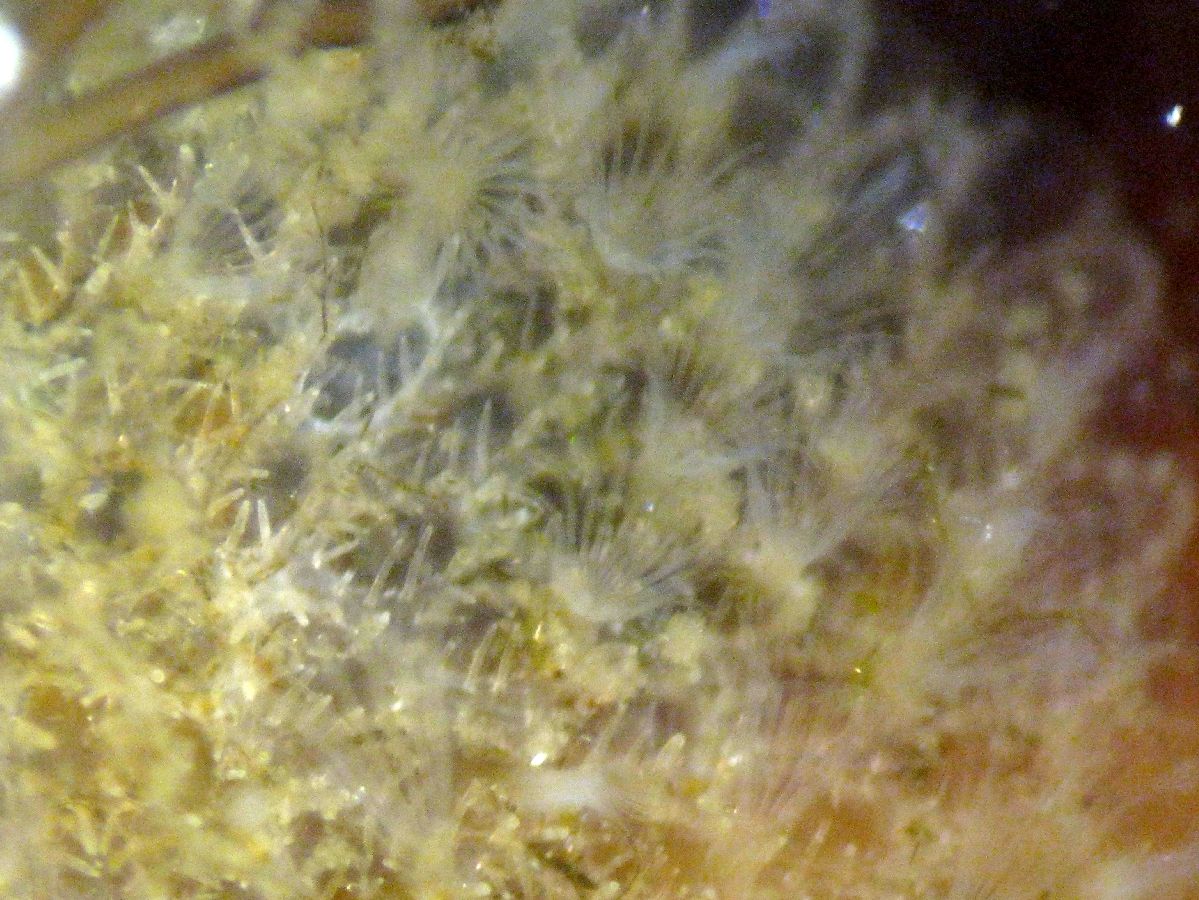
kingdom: Animalia
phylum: Bryozoa
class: Gymnolaemata
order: Cheilostomatida
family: Calloporidae
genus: Cauloramphus
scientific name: Cauloramphus cymbaeformis
